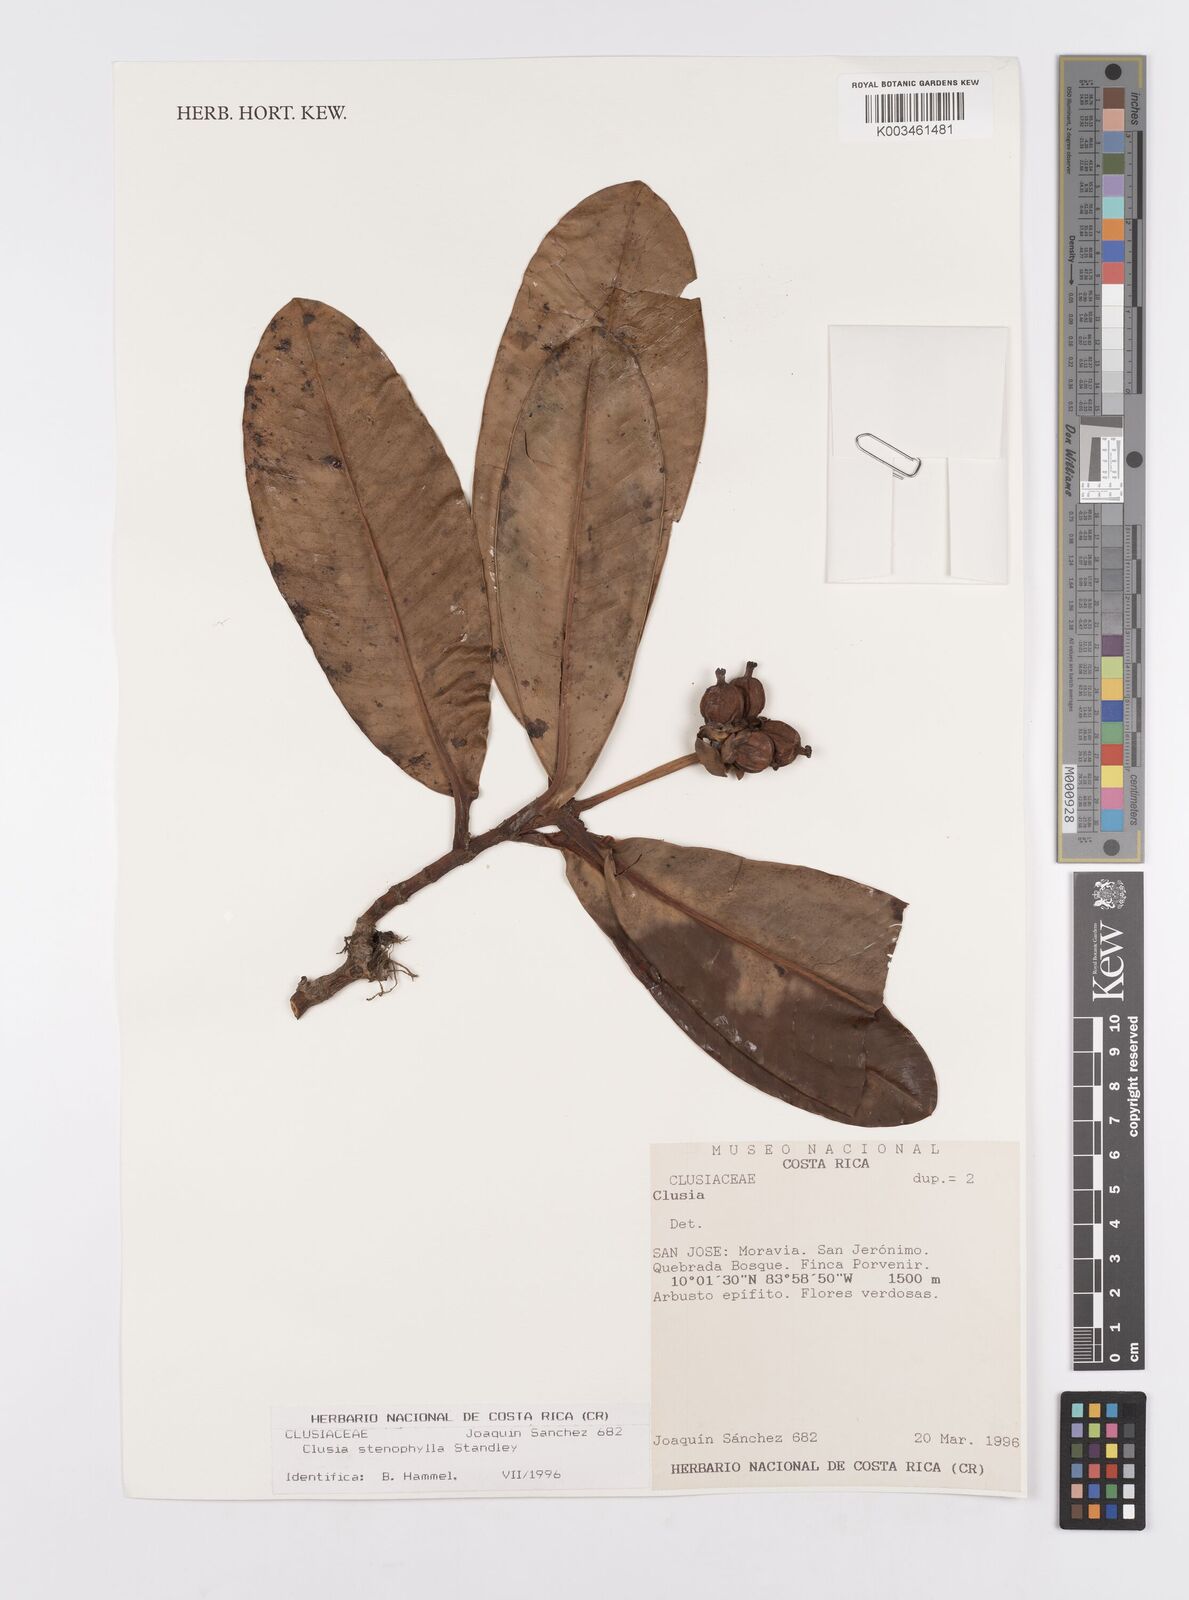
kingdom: Plantae
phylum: Tracheophyta
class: Magnoliopsida
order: Malpighiales
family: Clusiaceae
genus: Clusia
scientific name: Clusia stenophylla
